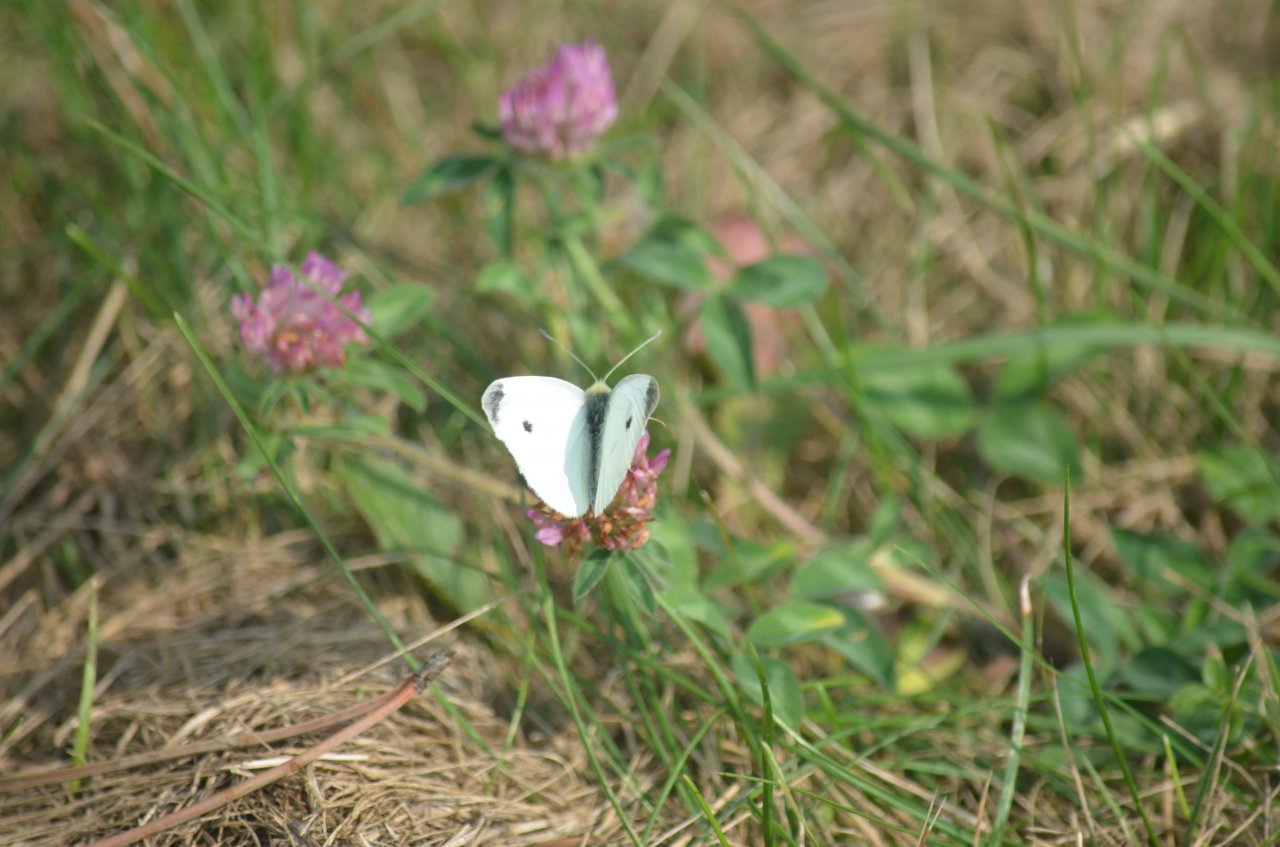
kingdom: Animalia
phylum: Arthropoda
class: Insecta
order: Lepidoptera
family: Pieridae
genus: Pieris
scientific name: Pieris rapae
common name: Cabbage White
